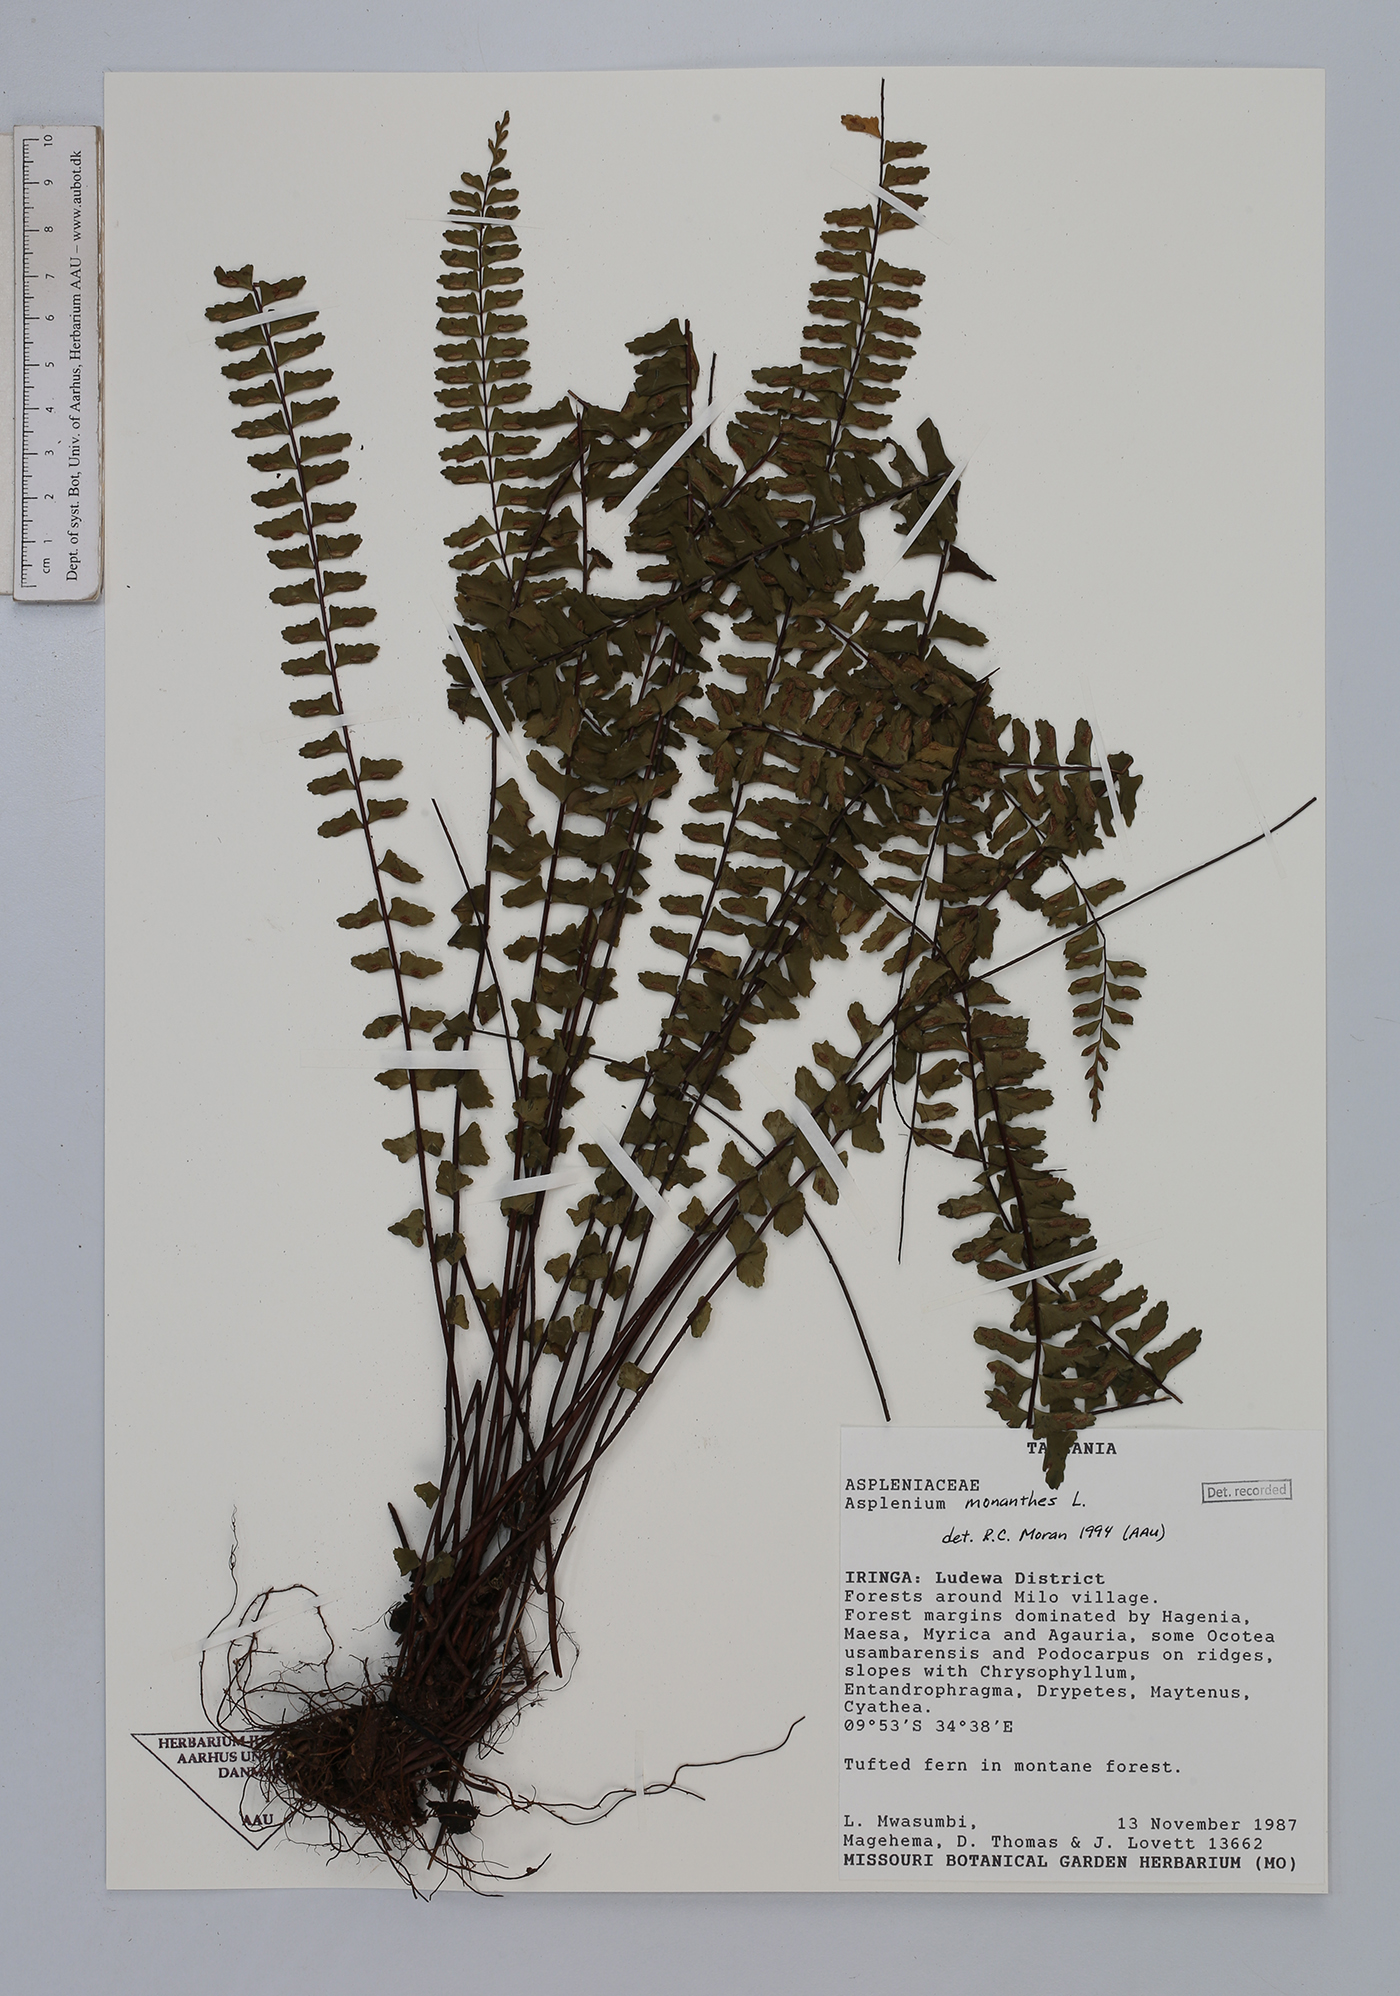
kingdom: Plantae
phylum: Tracheophyta
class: Polypodiopsida
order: Polypodiales
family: Aspleniaceae
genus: Asplenium
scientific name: Asplenium monanthes
